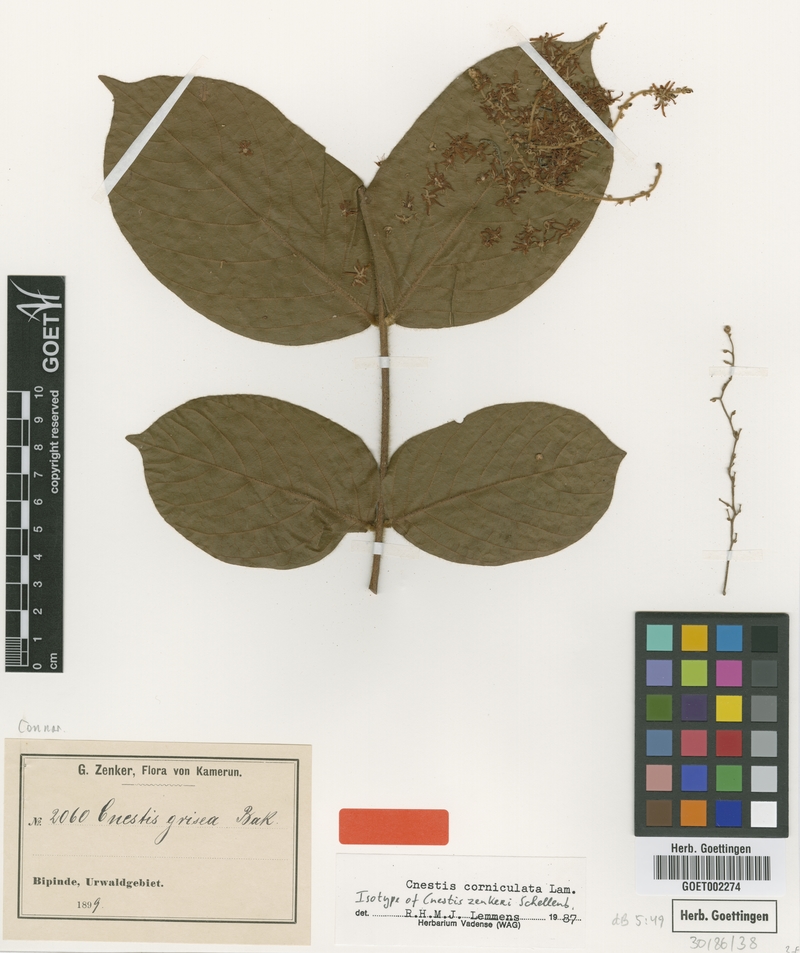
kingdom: Plantae
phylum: Tracheophyta
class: Magnoliopsida
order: Oxalidales
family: Connaraceae
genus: Cnestis
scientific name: Cnestis corniculata
